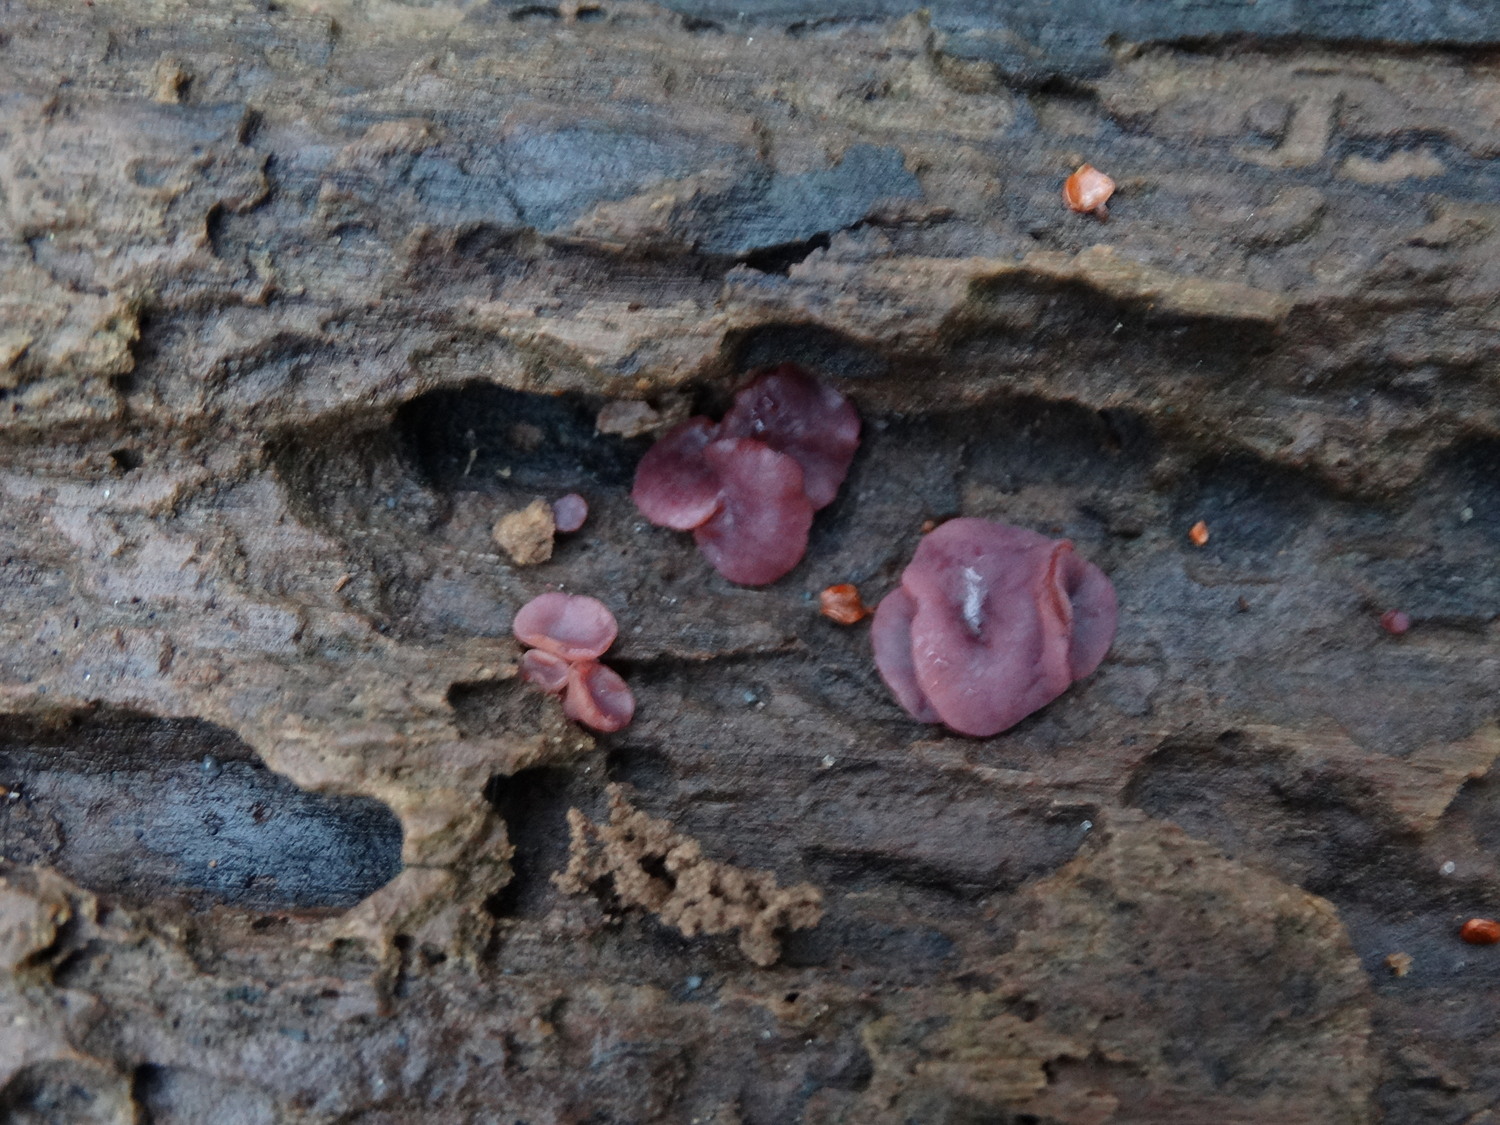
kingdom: Fungi
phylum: Ascomycota
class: Leotiomycetes
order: Helotiales
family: Gelatinodiscaceae
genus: Ascocoryne
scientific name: Ascocoryne cylichnium
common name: stor sejskive
